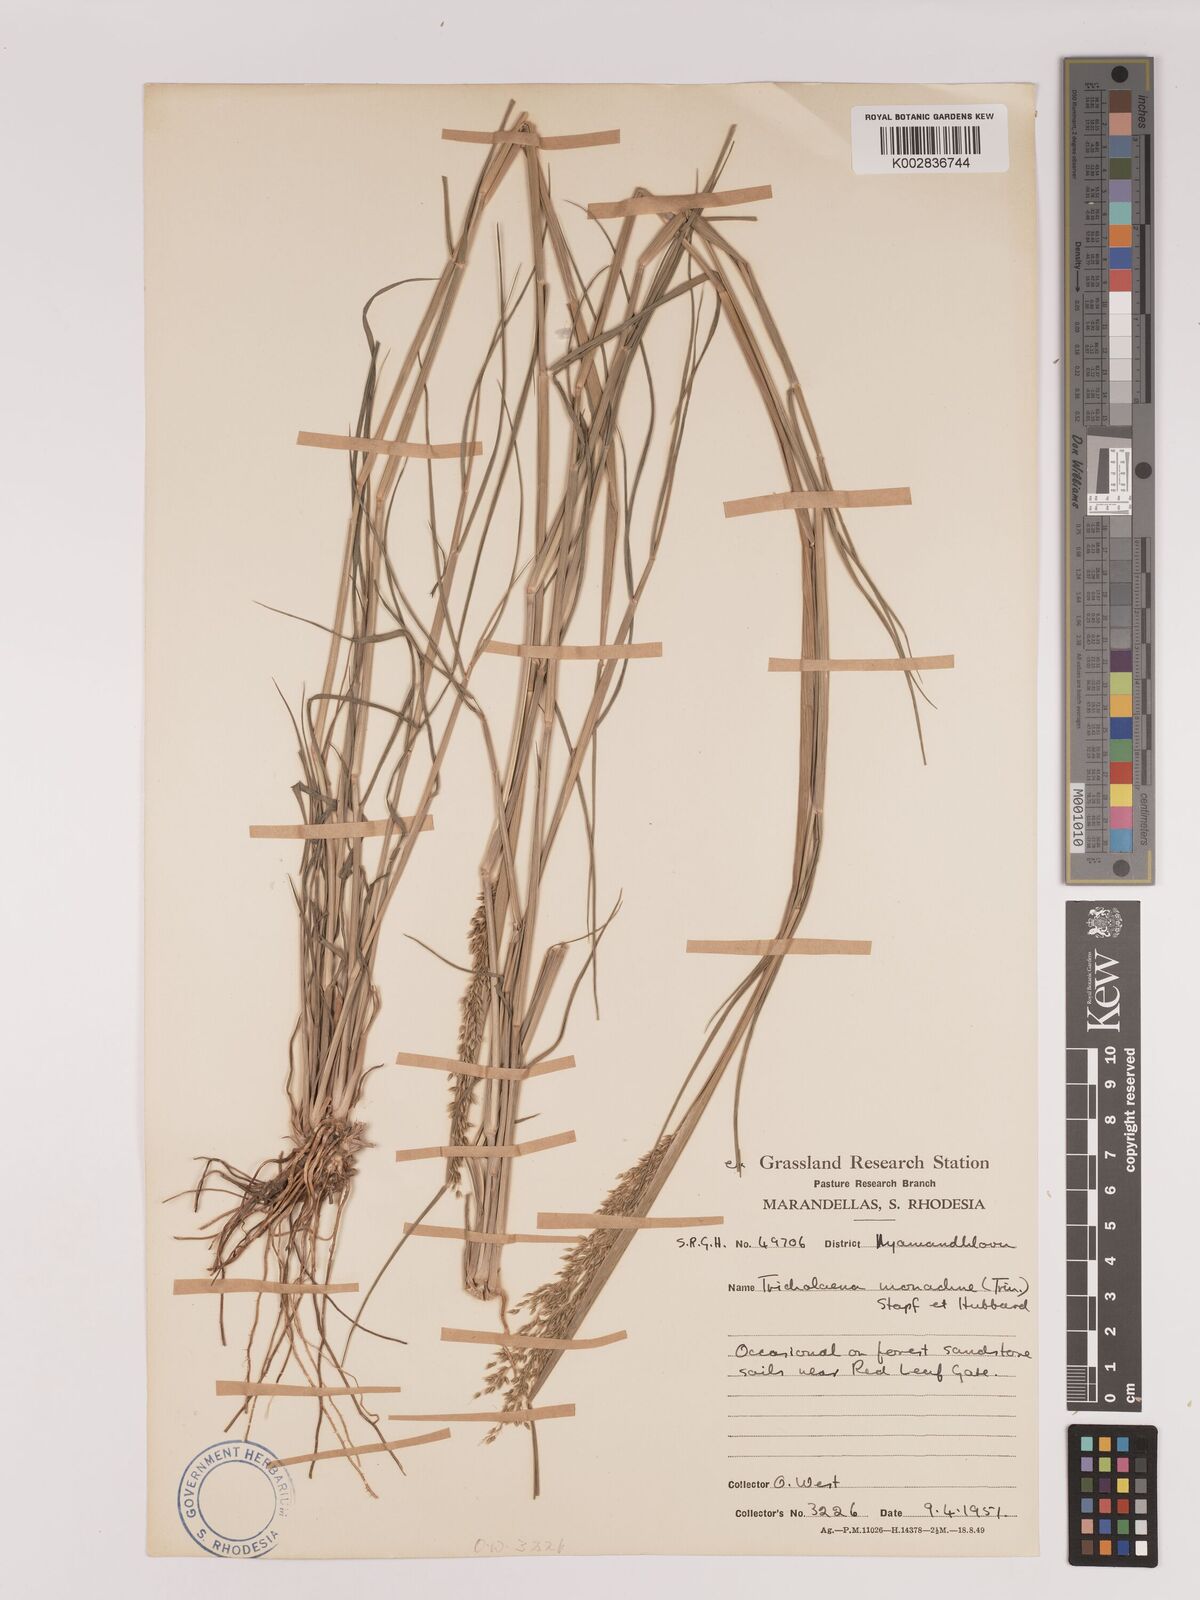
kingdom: Plantae
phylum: Tracheophyta
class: Liliopsida
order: Poales
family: Poaceae
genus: Tricholaena
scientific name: Tricholaena monachne
